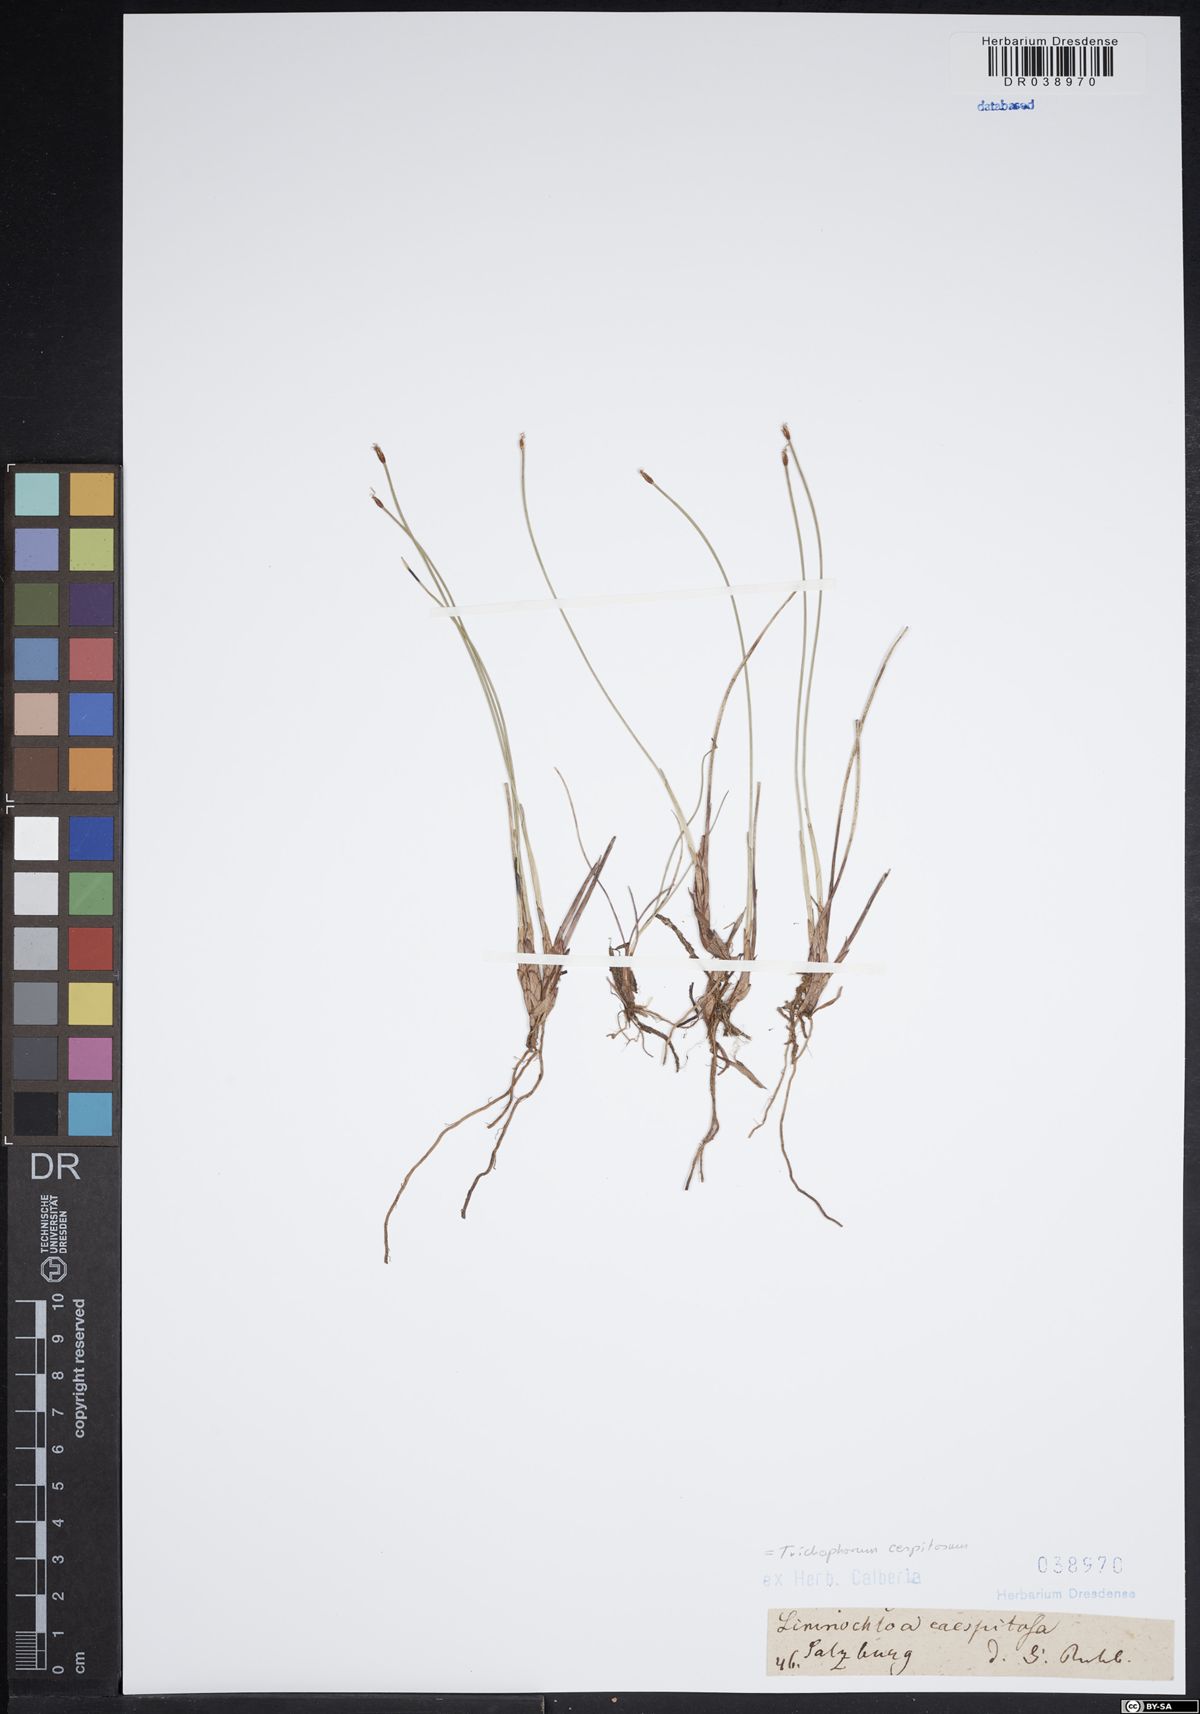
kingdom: Plantae
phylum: Tracheophyta
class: Liliopsida
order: Poales
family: Cyperaceae
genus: Trichophorum
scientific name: Trichophorum cespitosum
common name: Cespitose bulrush
